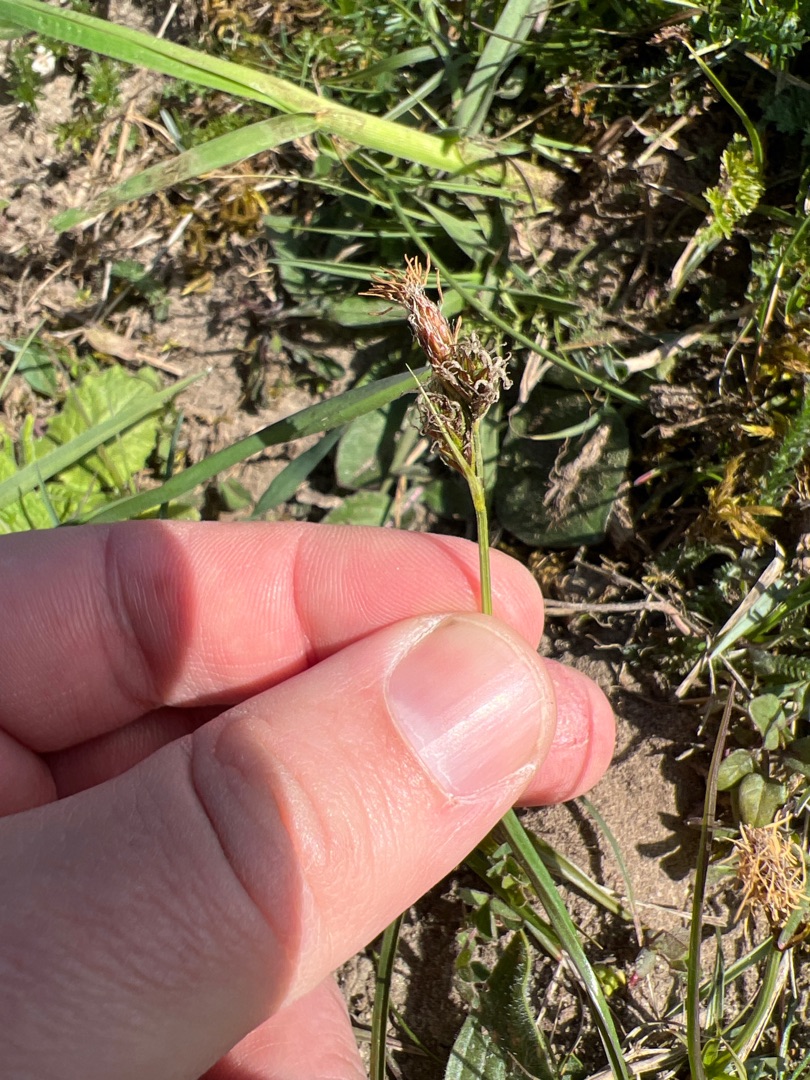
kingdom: Plantae
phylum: Tracheophyta
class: Liliopsida
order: Poales
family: Cyperaceae
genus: Carex
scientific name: Carex caryophyllea
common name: Vår-star
